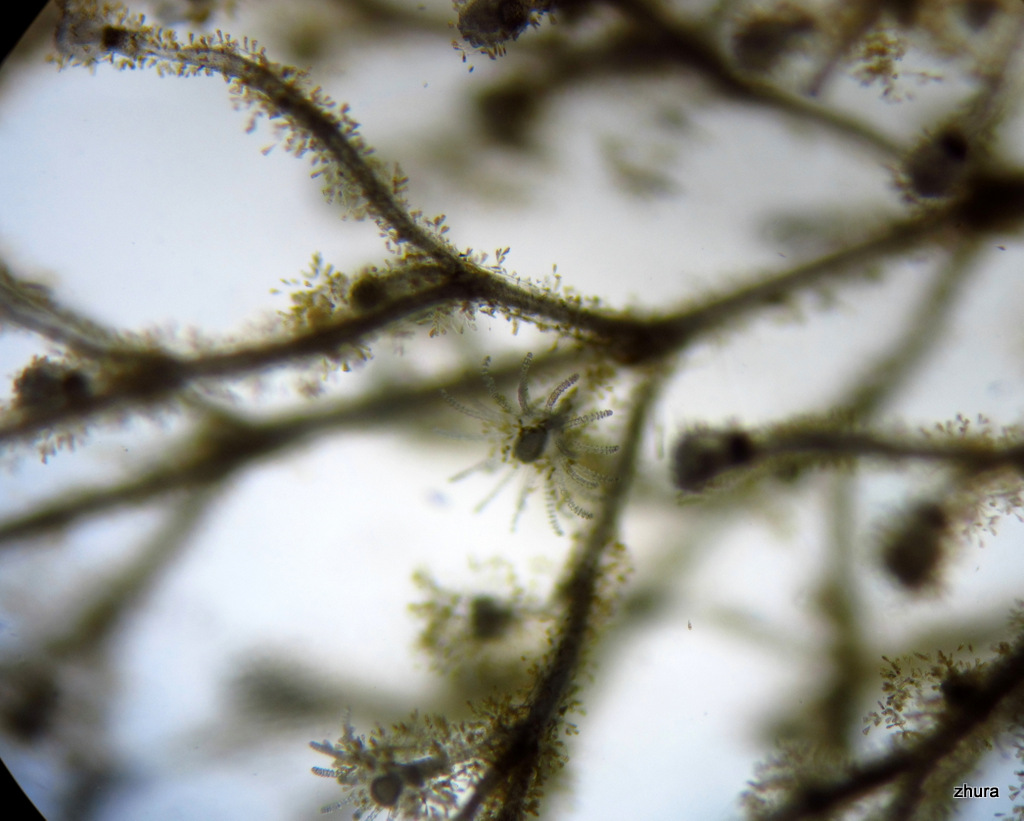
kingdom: Animalia
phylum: Cnidaria
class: Hydrozoa
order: Leptothecata
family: Campanulariidae
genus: Obelia
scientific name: Obelia
